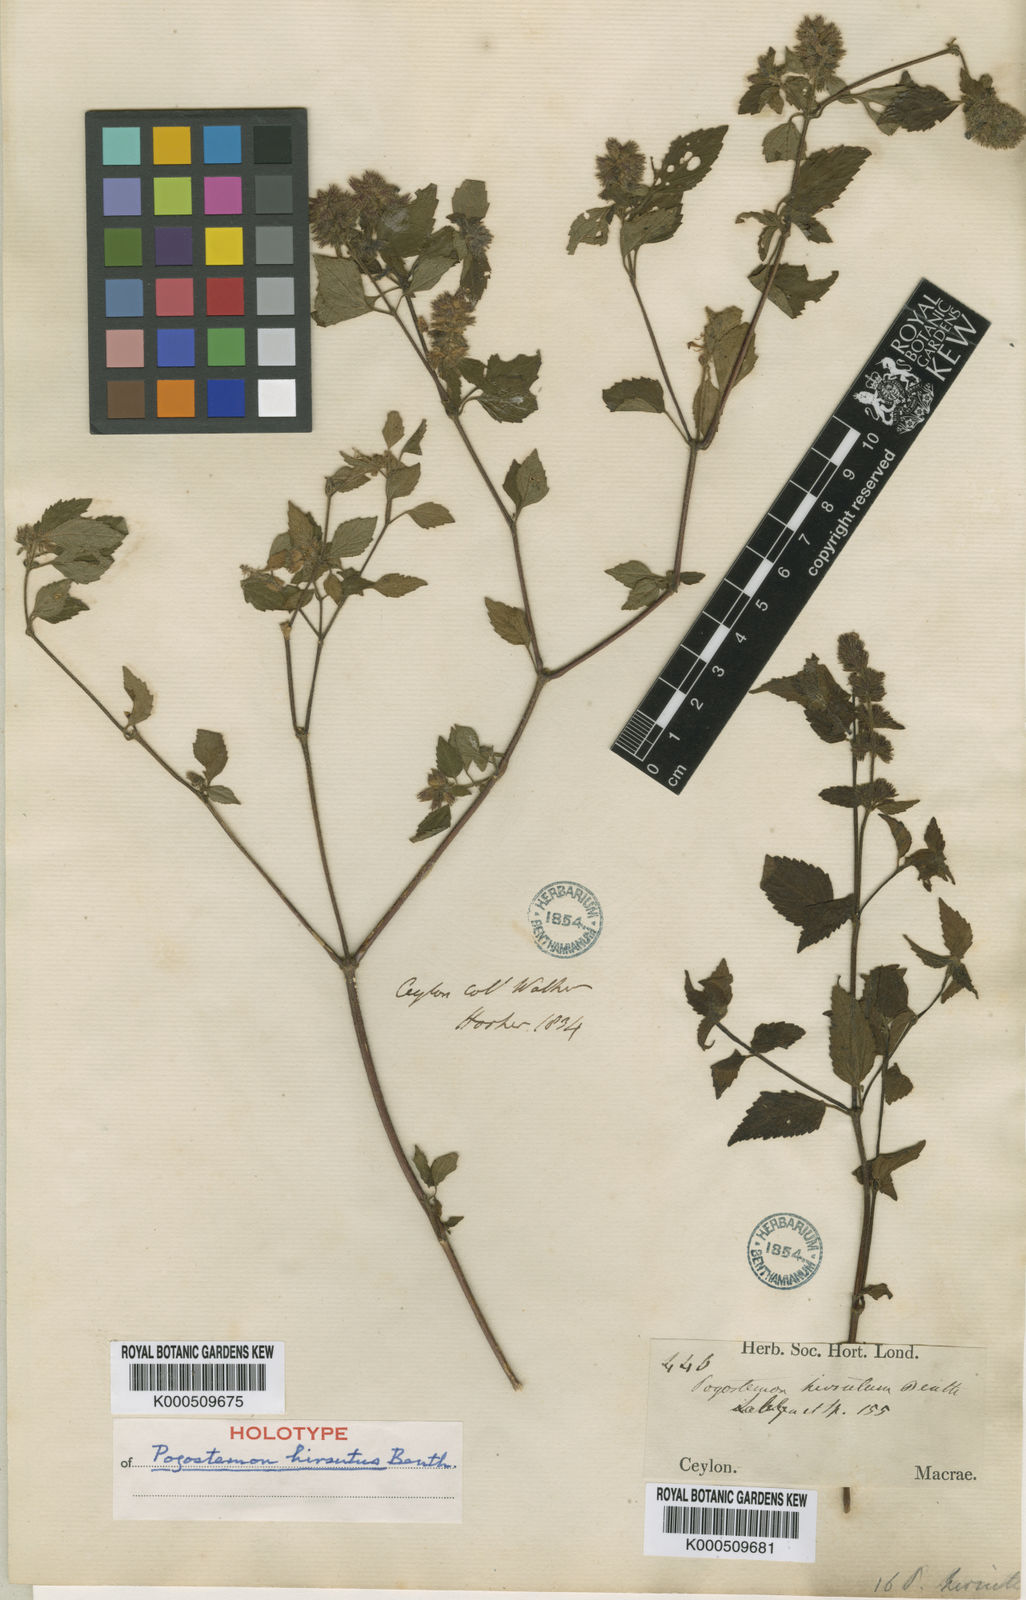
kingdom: Plantae
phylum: Tracheophyta
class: Magnoliopsida
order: Lamiales
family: Lamiaceae
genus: Pogostemon
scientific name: Pogostemon hirsutus
